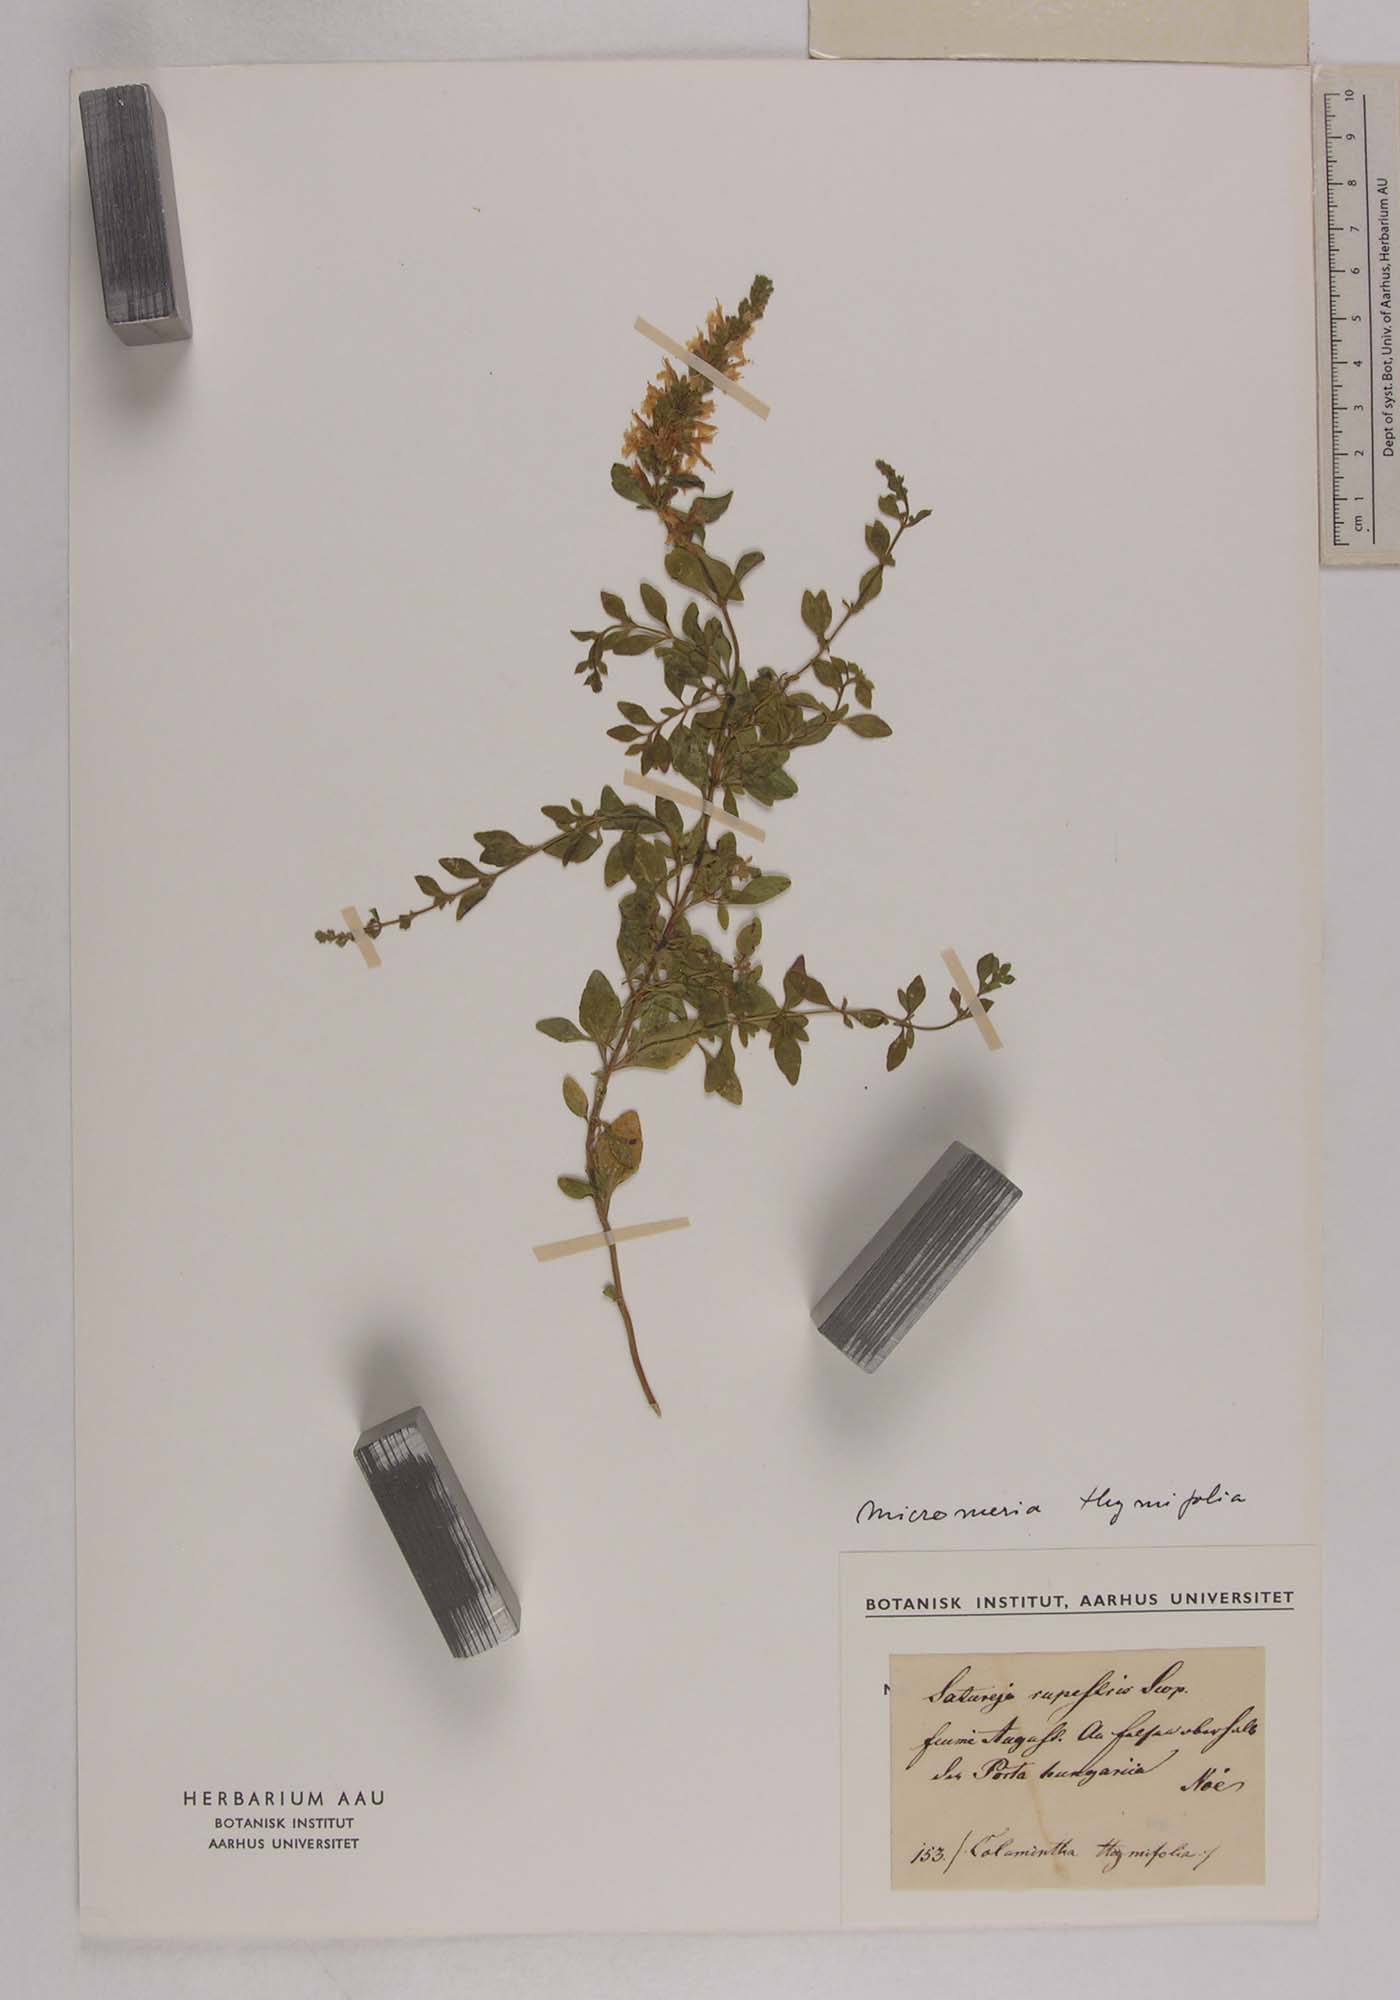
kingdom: Plantae
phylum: Tracheophyta
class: Magnoliopsida
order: Lamiales
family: Lamiaceae
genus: Clinopodium
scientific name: Clinopodium album
